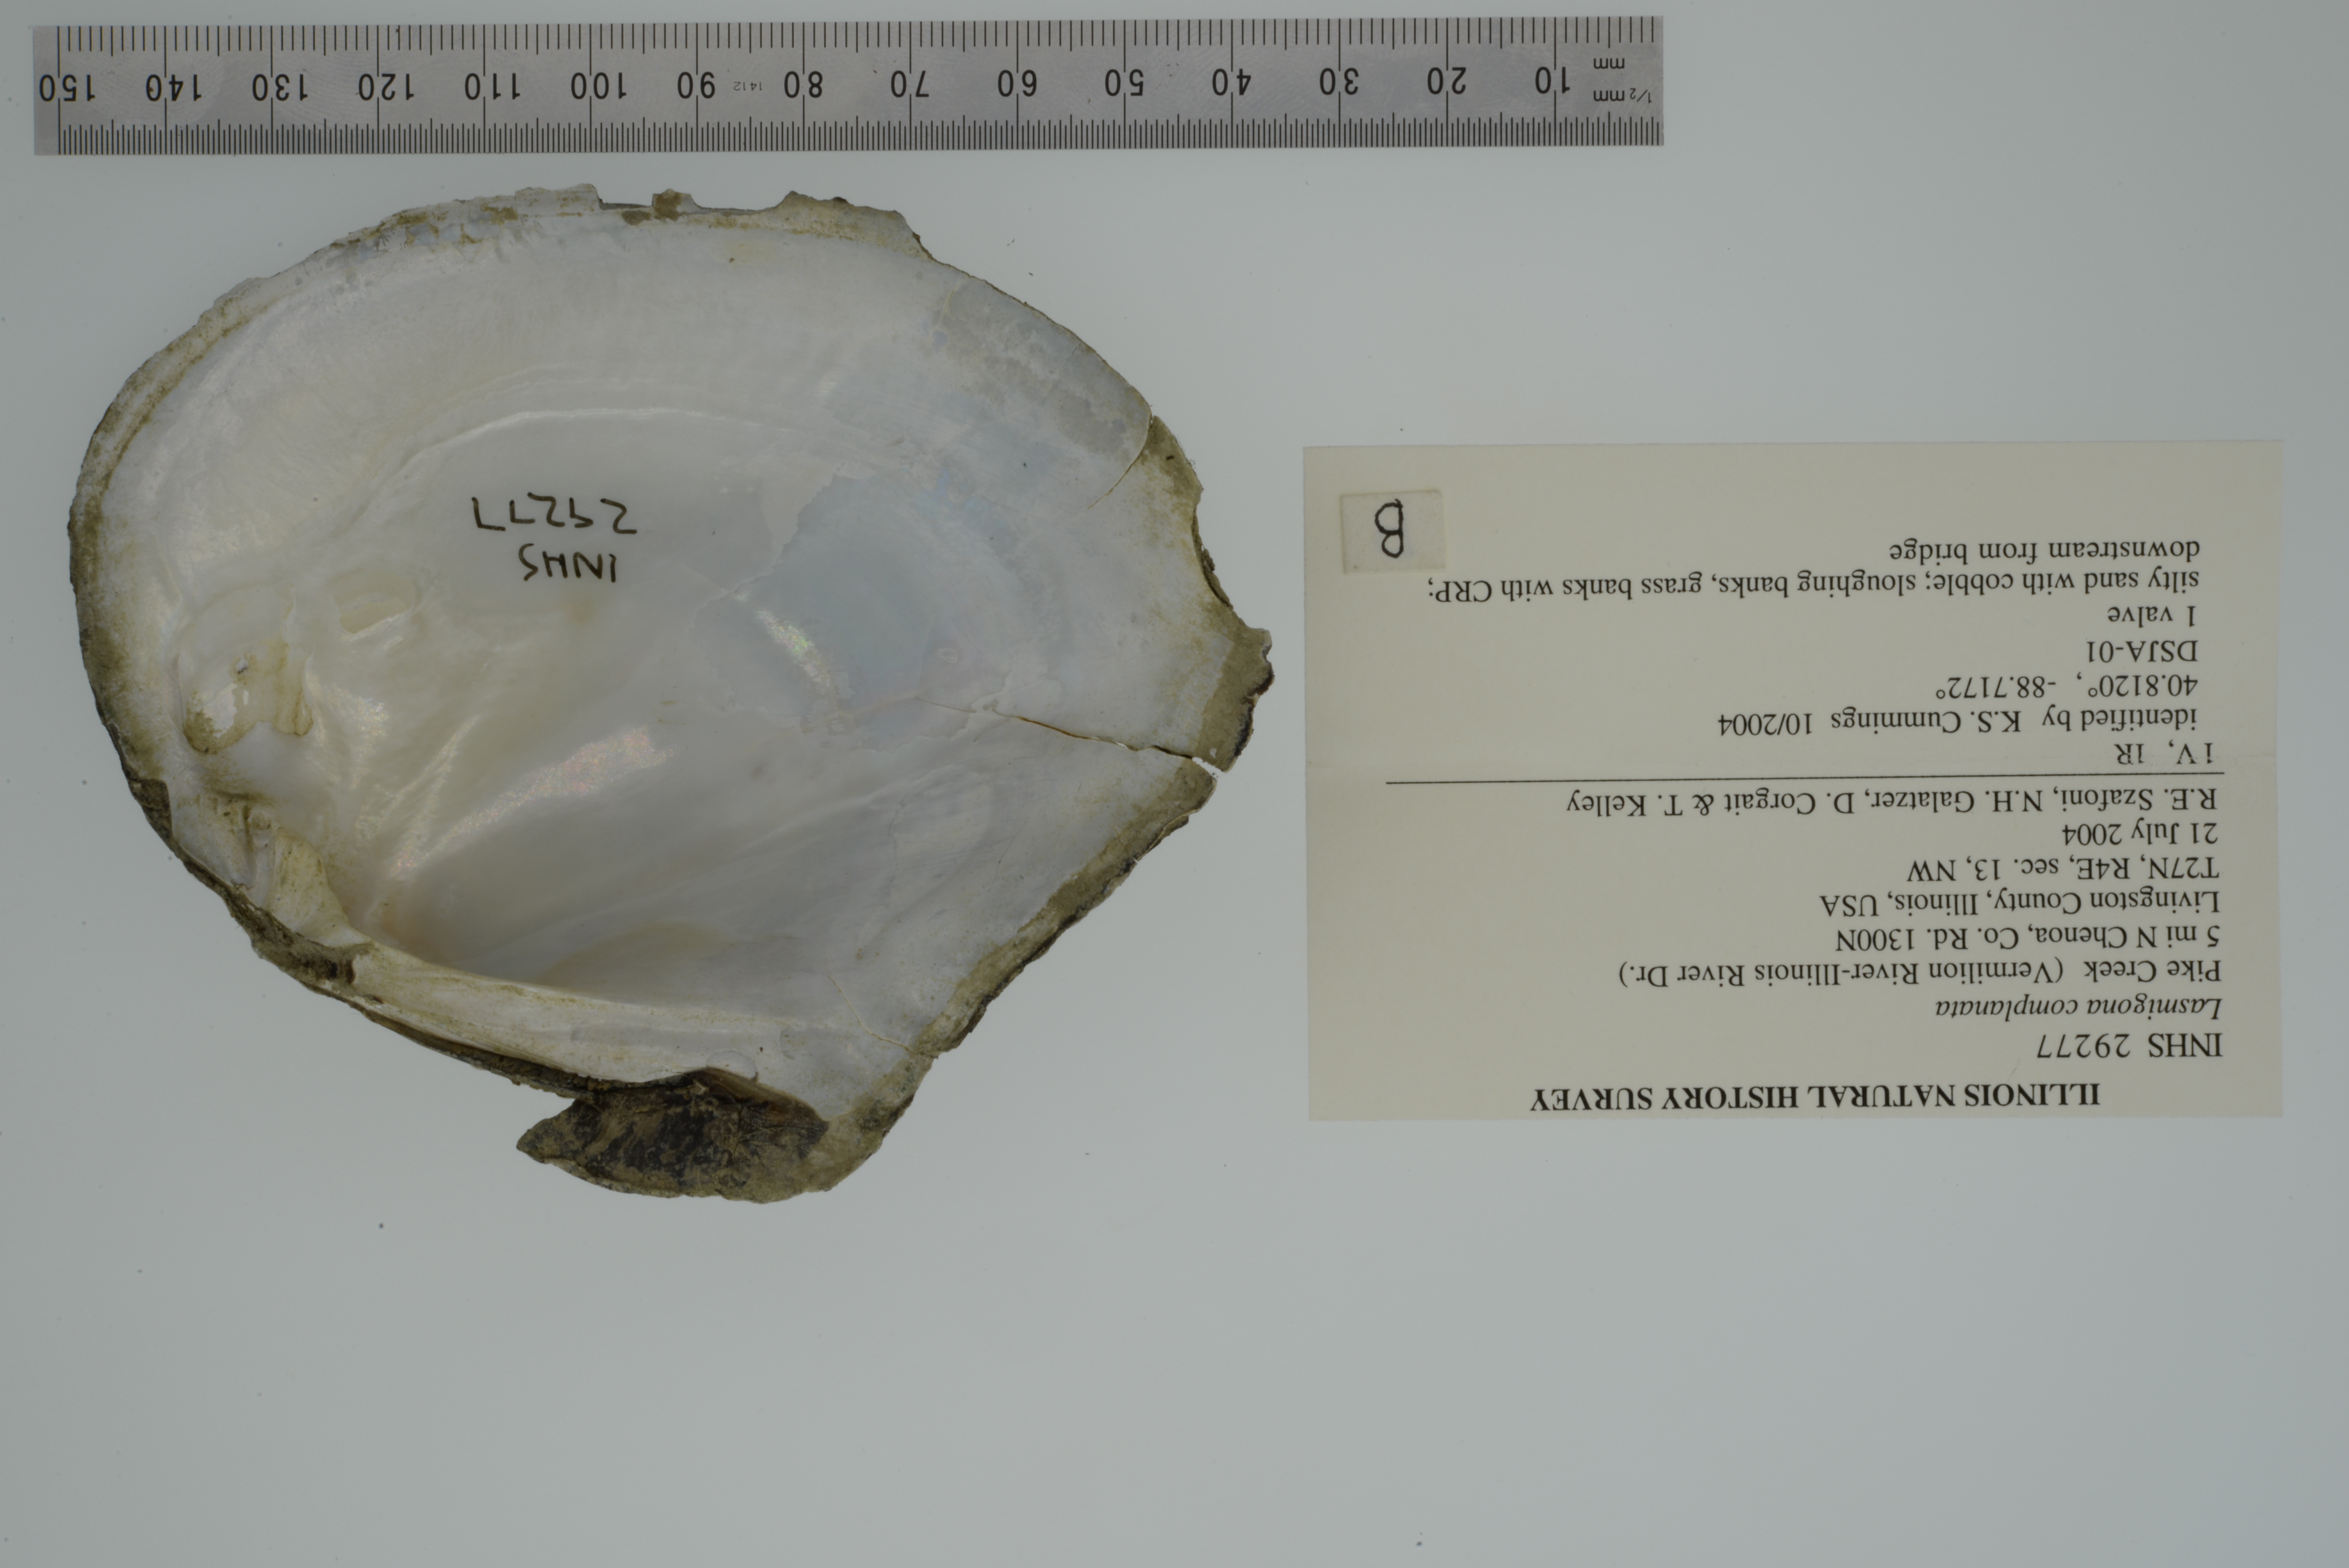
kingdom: Animalia
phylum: Mollusca
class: Bivalvia
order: Unionida
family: Unionidae
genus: Lasmigona
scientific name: Lasmigona complanata
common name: White heelsplitter
